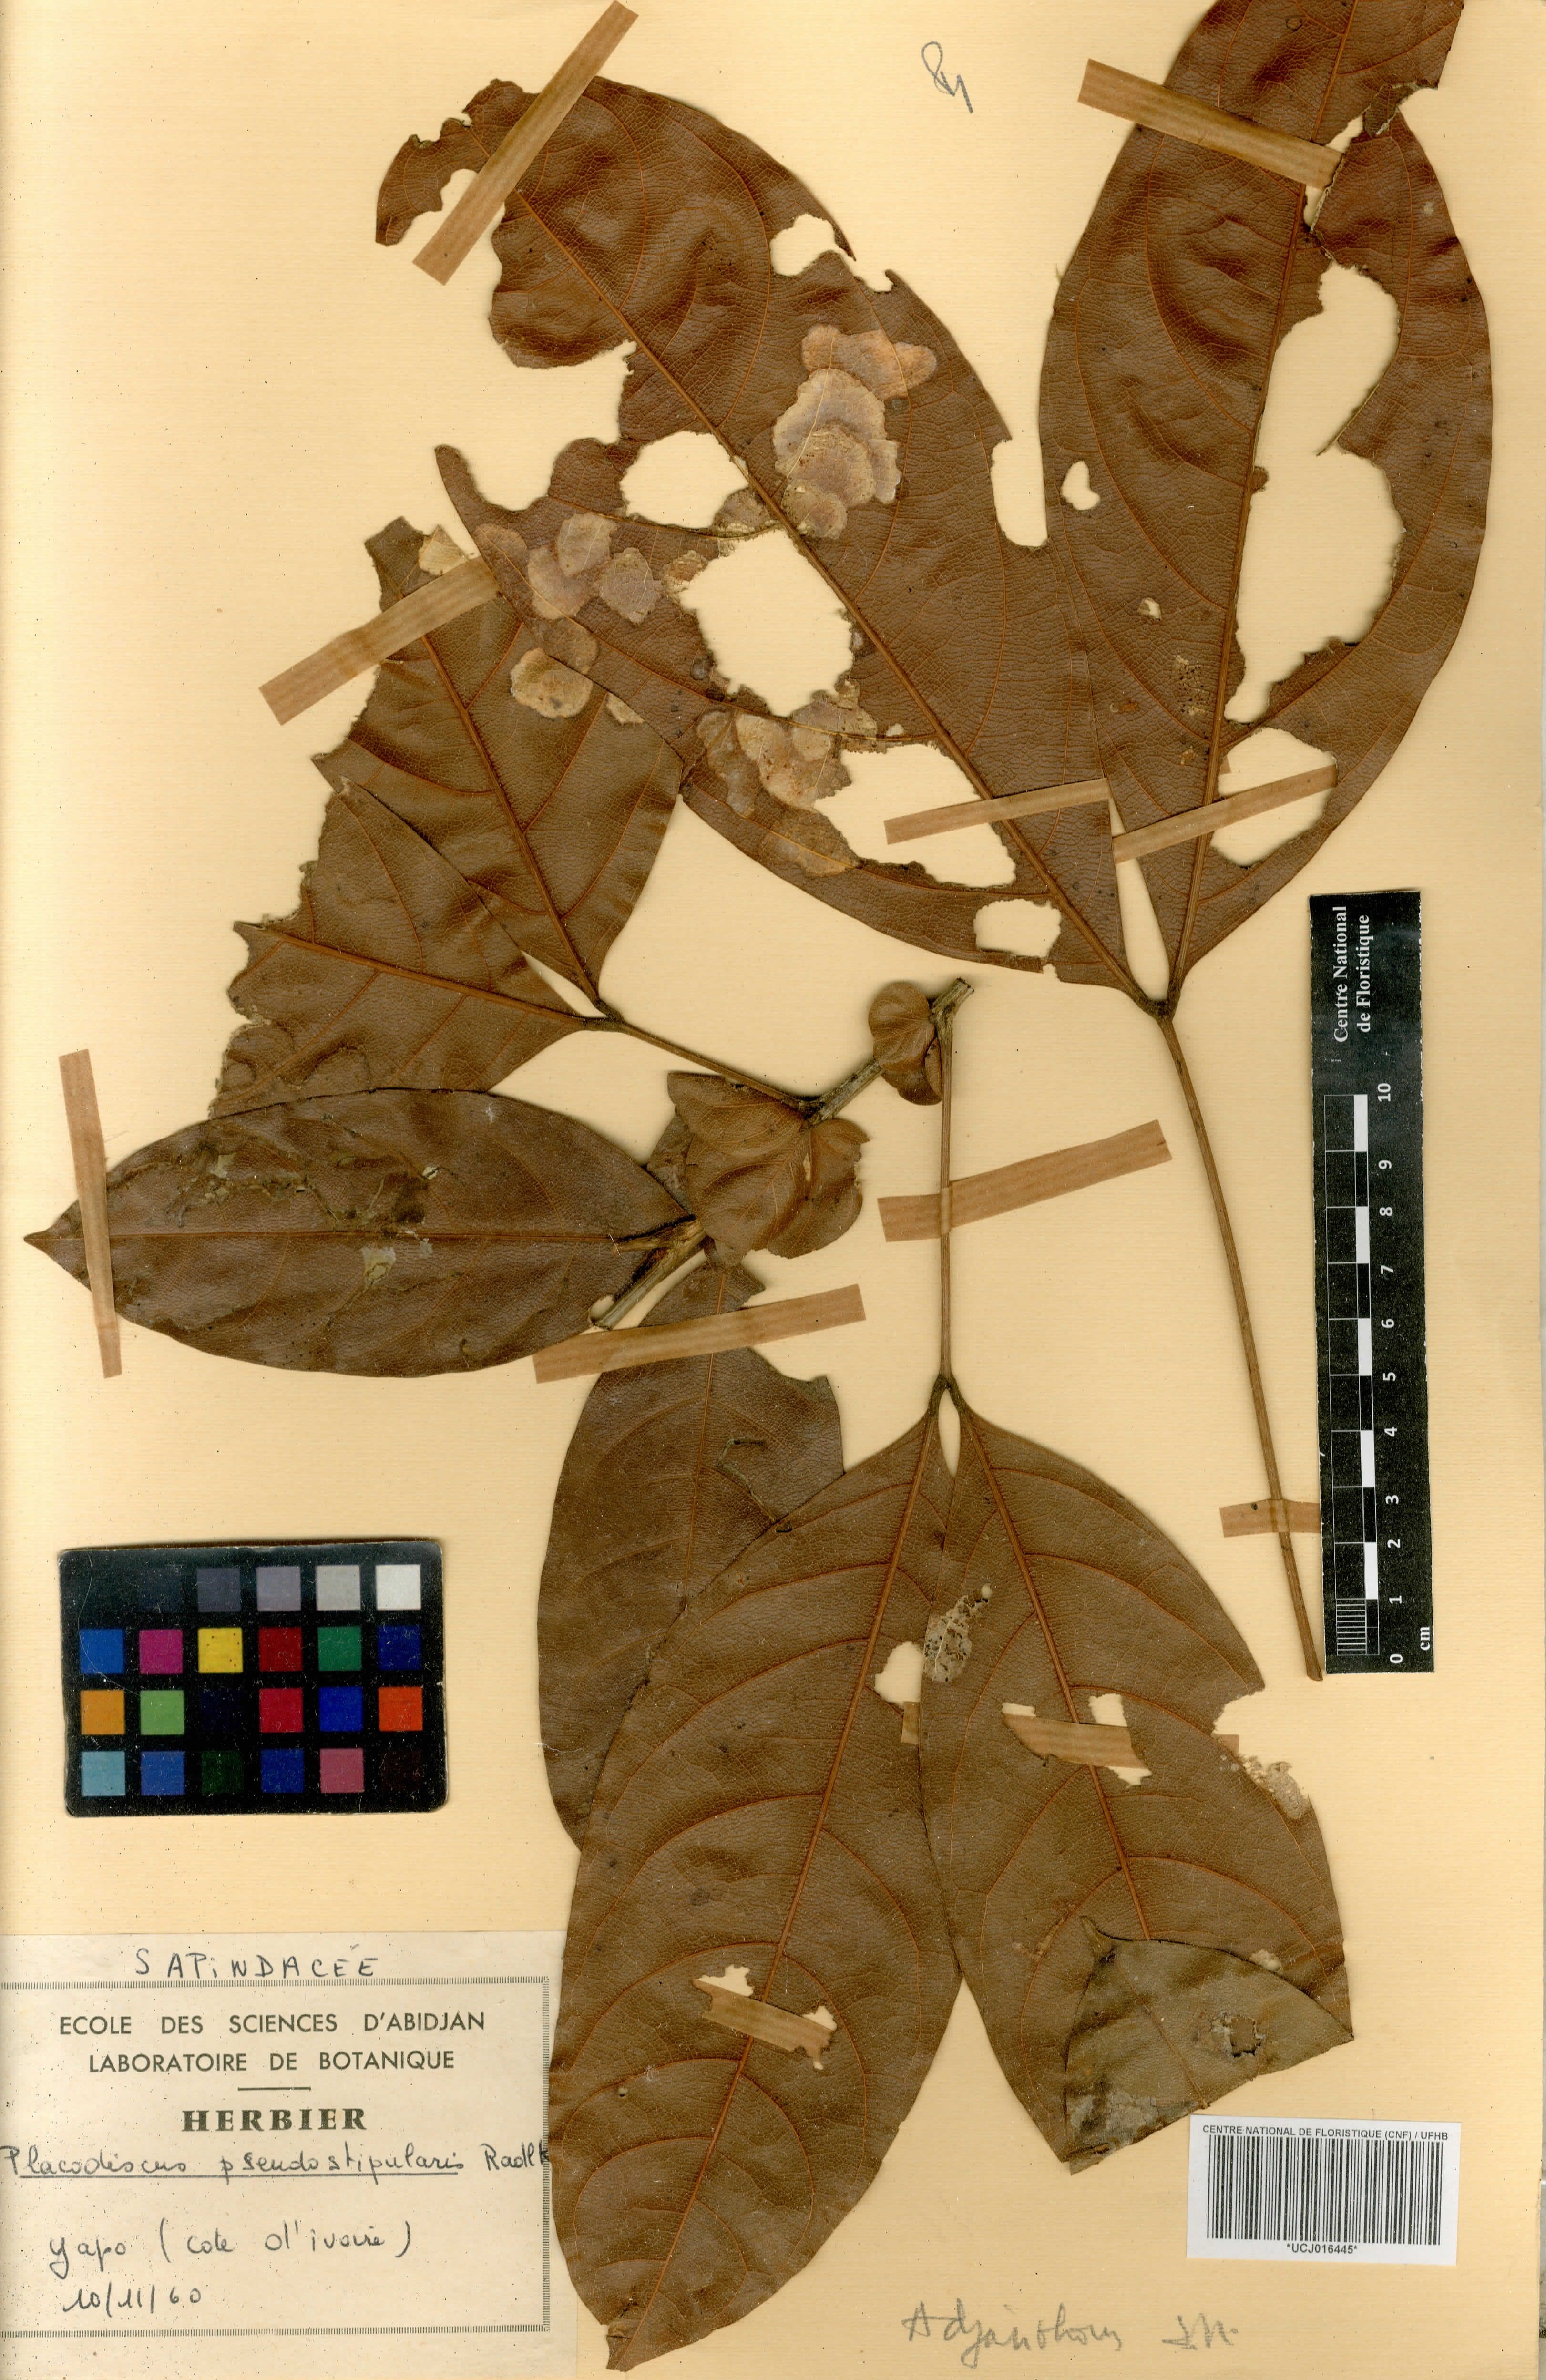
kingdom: Plantae
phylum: Tracheophyta
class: Magnoliopsida
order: Sapindales
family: Sapindaceae
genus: Placodiscus
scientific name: Placodiscus pseudostipularis
